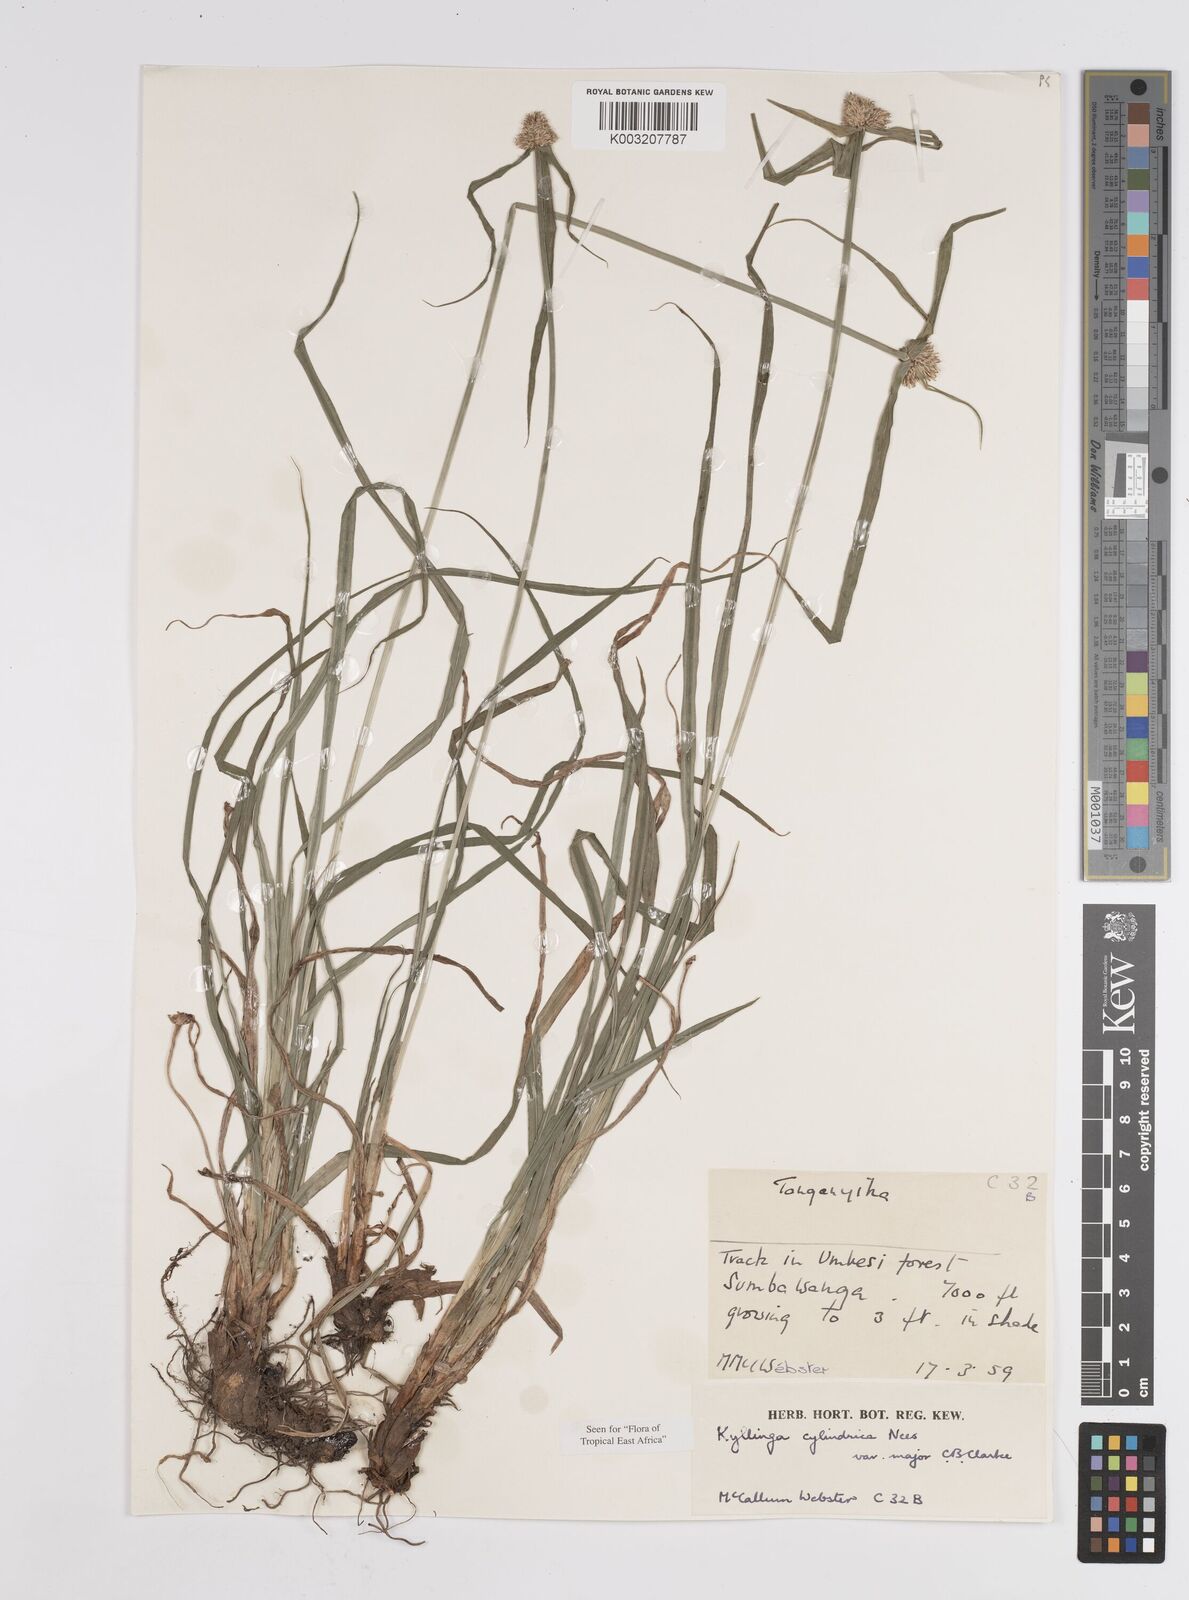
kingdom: Plantae
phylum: Tracheophyta
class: Liliopsida
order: Poales
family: Cyperaceae
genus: Cyperus
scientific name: Cyperus
